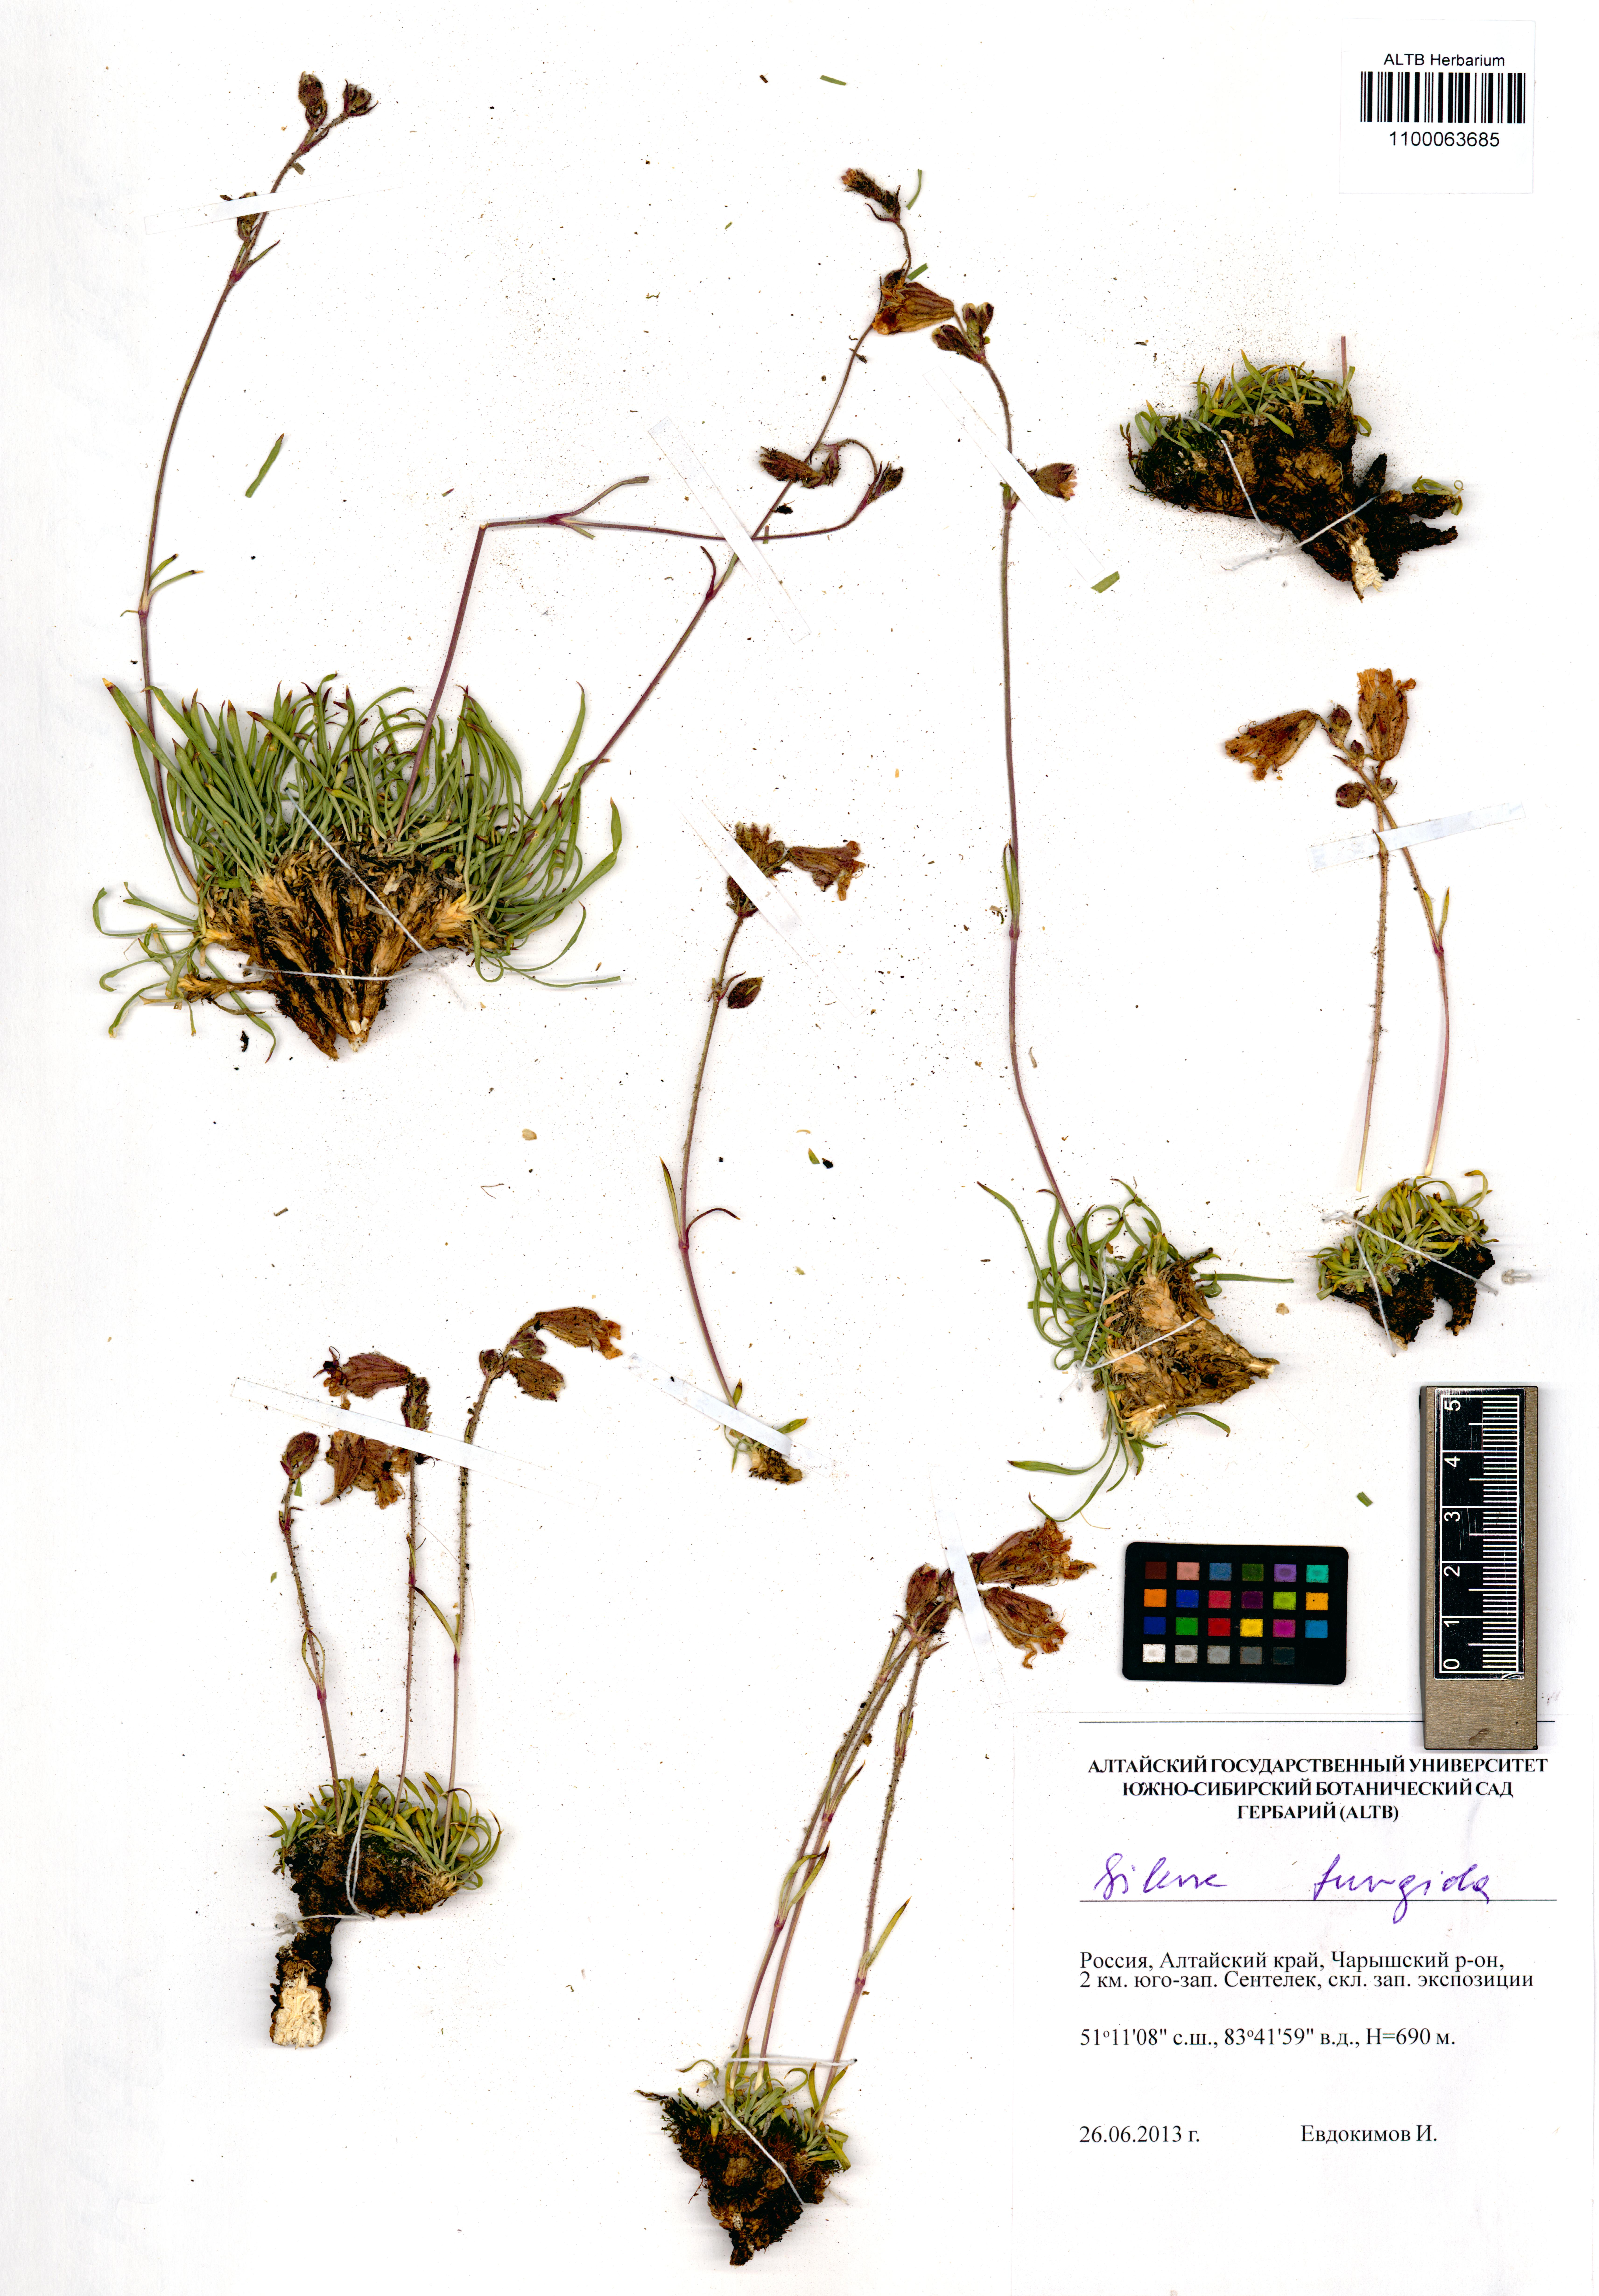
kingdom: Plantae
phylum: Tracheophyta
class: Magnoliopsida
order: Caryophyllales
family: Caryophyllaceae
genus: Silene
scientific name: Silene turgida
